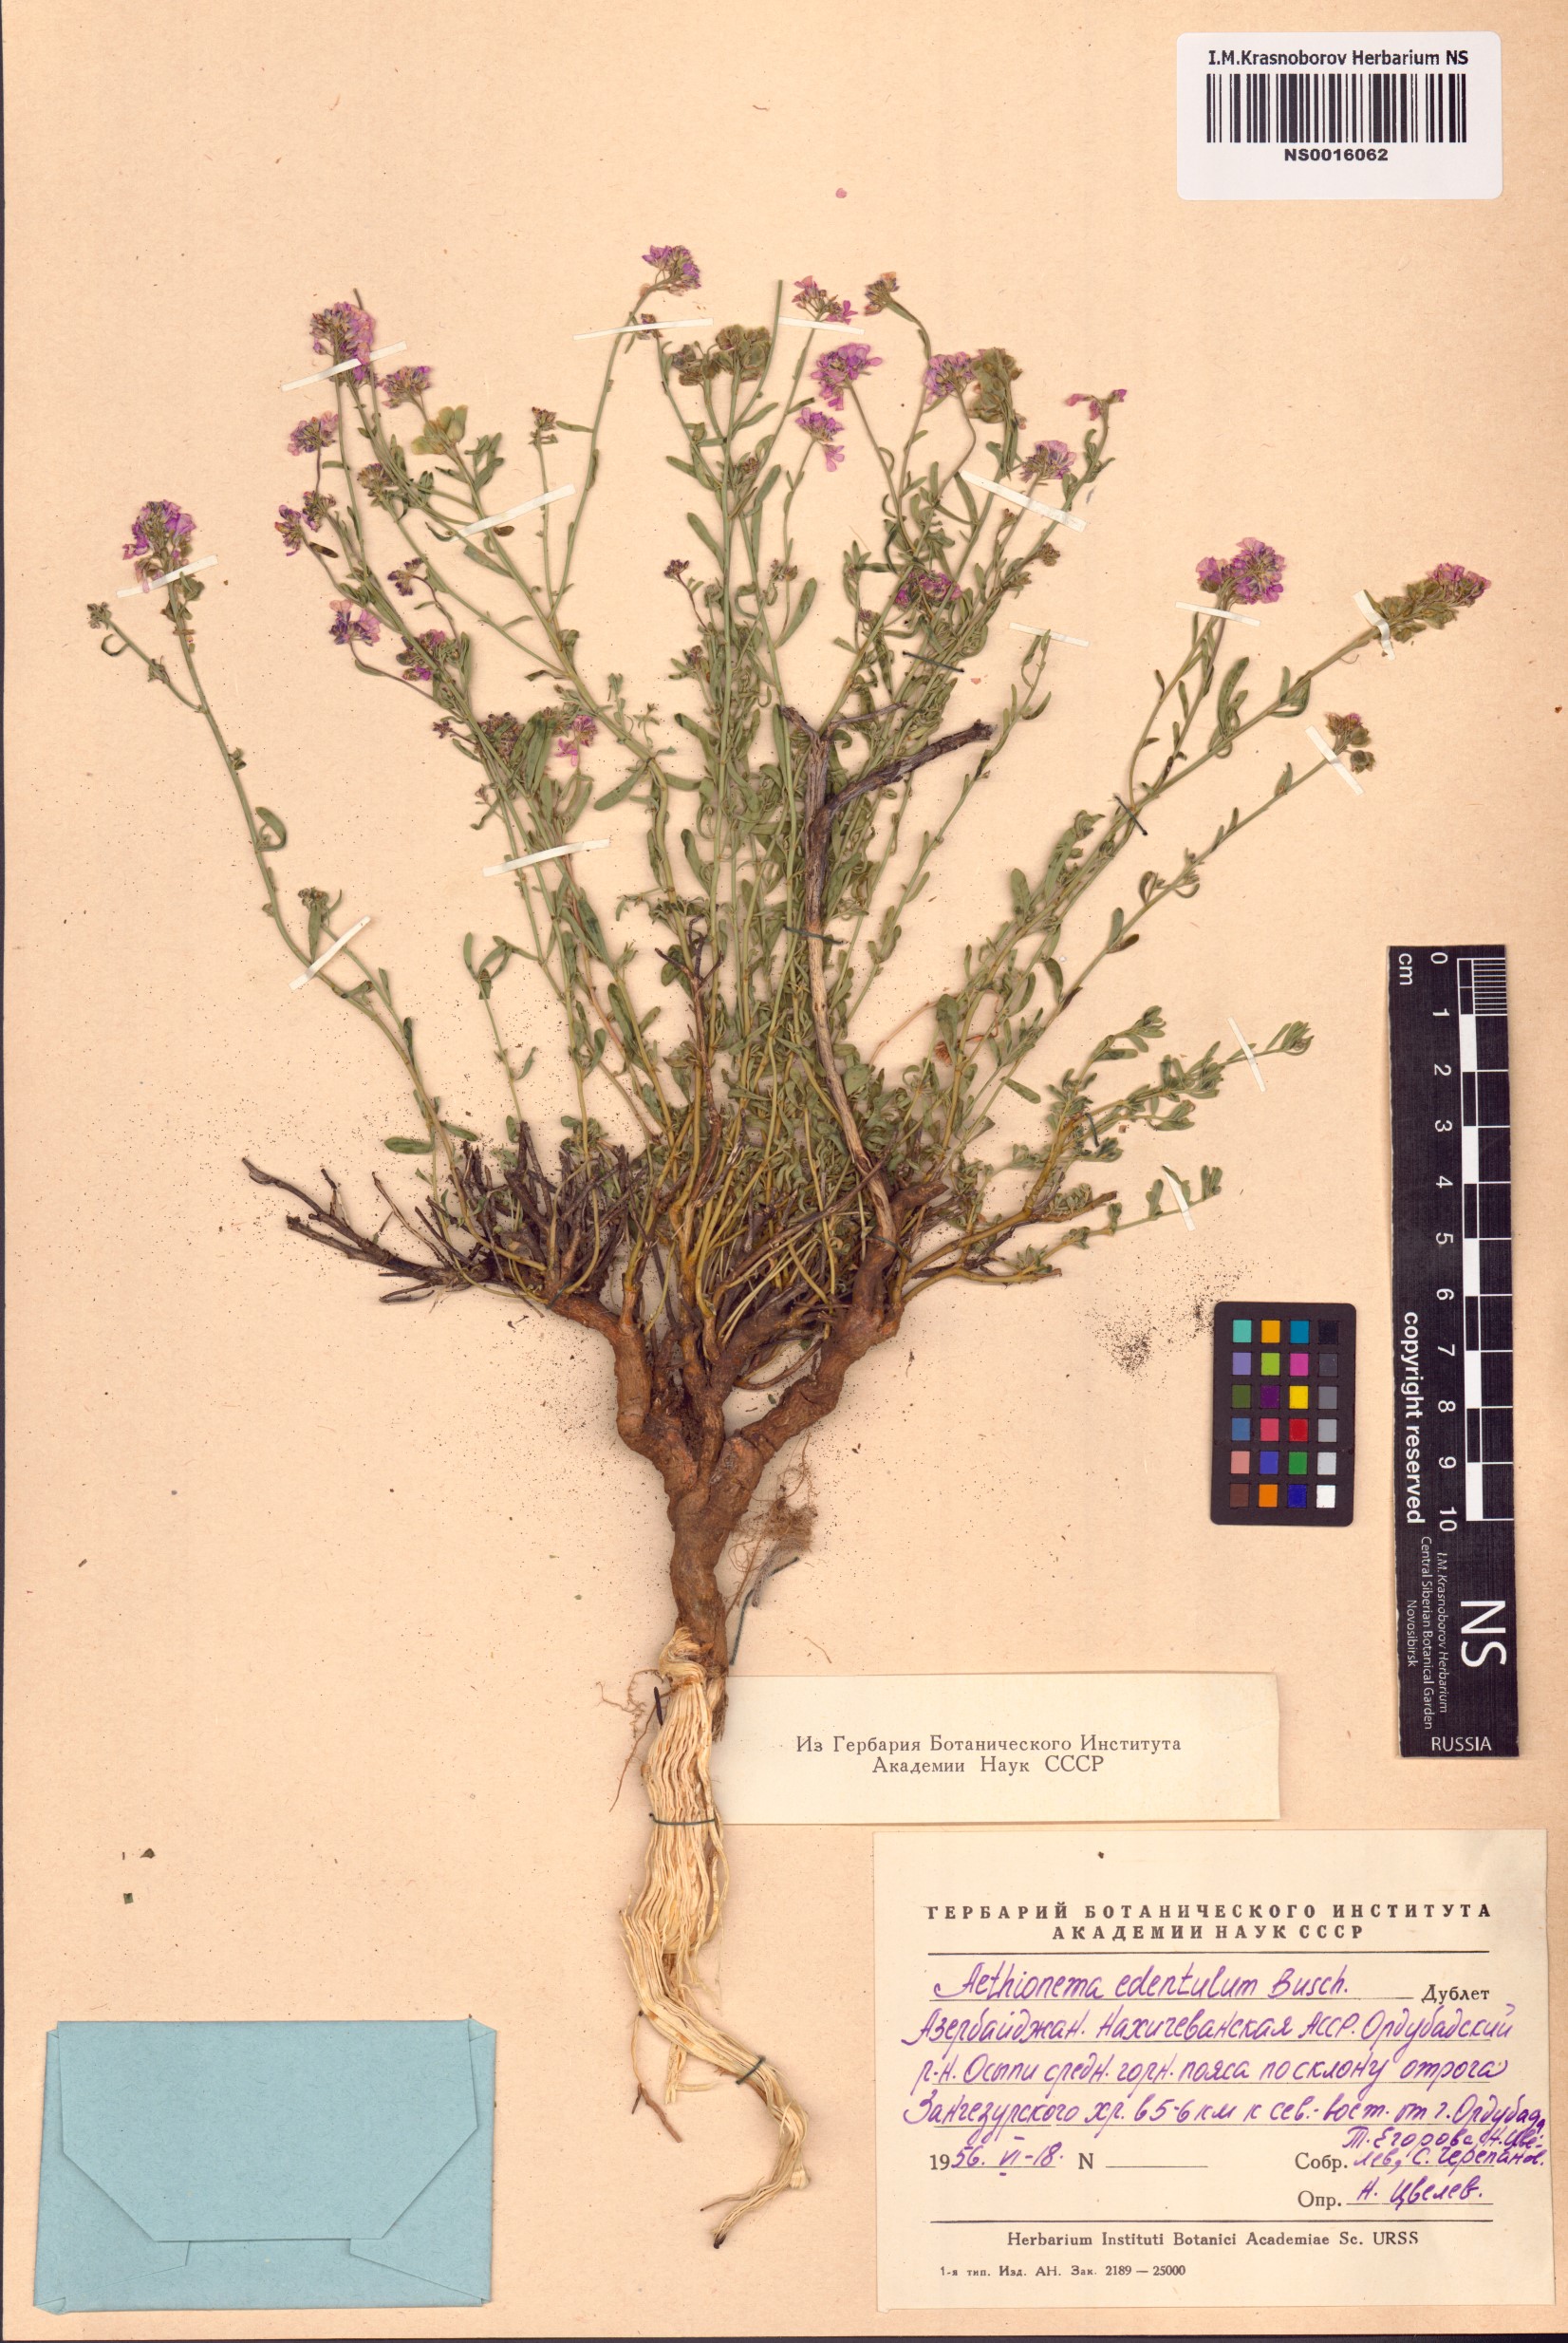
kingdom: Plantae
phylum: Tracheophyta
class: Magnoliopsida
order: Brassicales
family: Brassicaceae
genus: Aethionema
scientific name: Aethionema membranaceum
